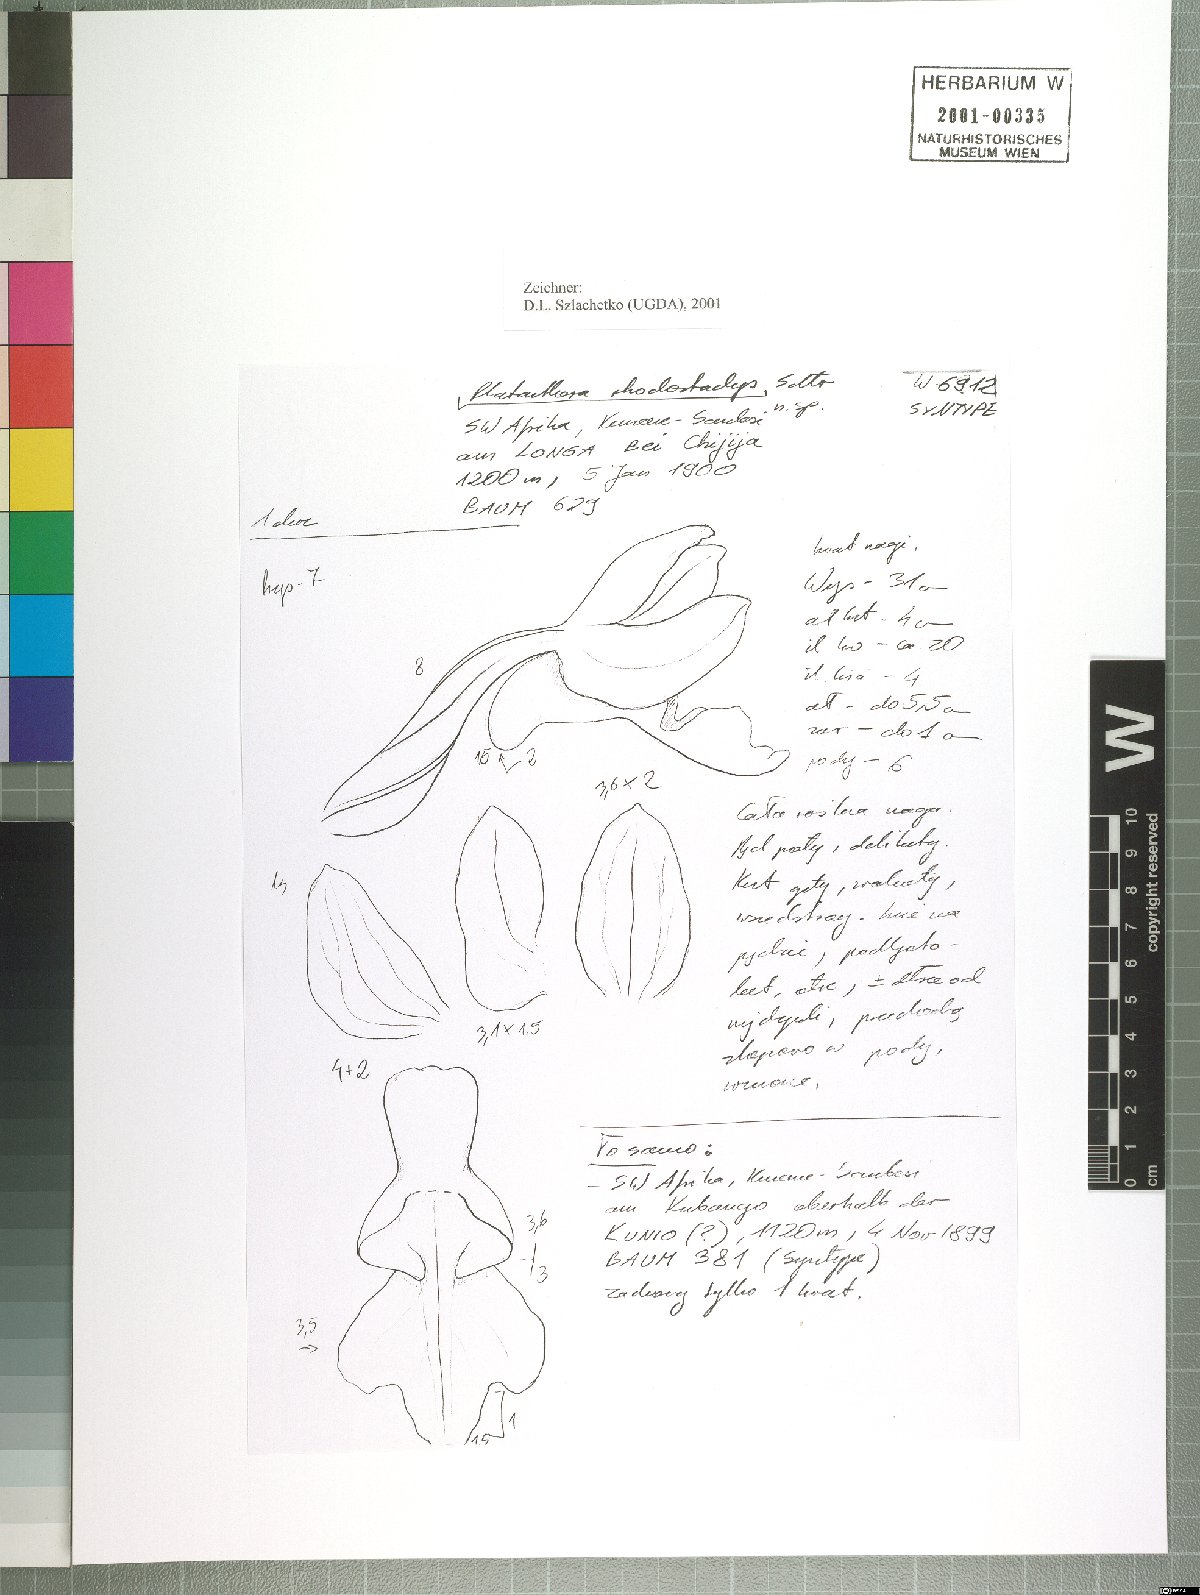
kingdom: Plantae
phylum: Tracheophyta
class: Liliopsida
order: Asparagales
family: Orchidaceae
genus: Brachycorythis
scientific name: Brachycorythis rhodostachys
